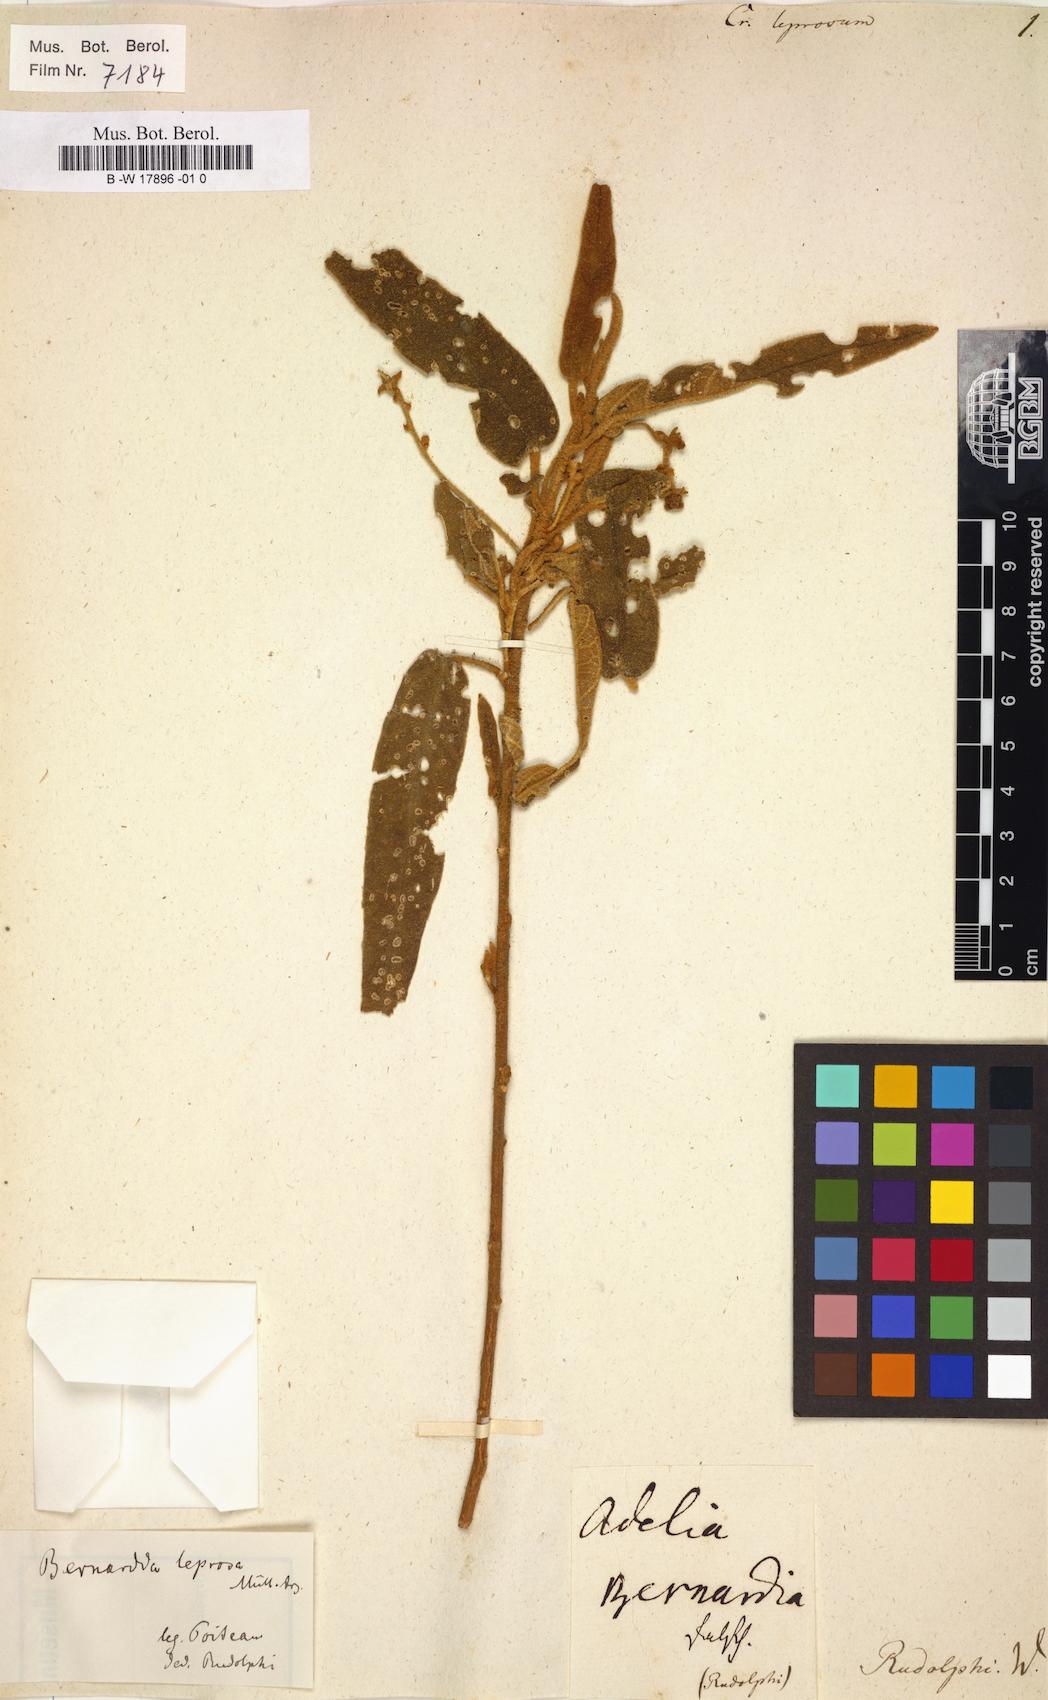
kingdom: Plantae
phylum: Tracheophyta
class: Magnoliopsida
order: Malpighiales
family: Euphorbiaceae
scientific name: Euphorbiaceae
